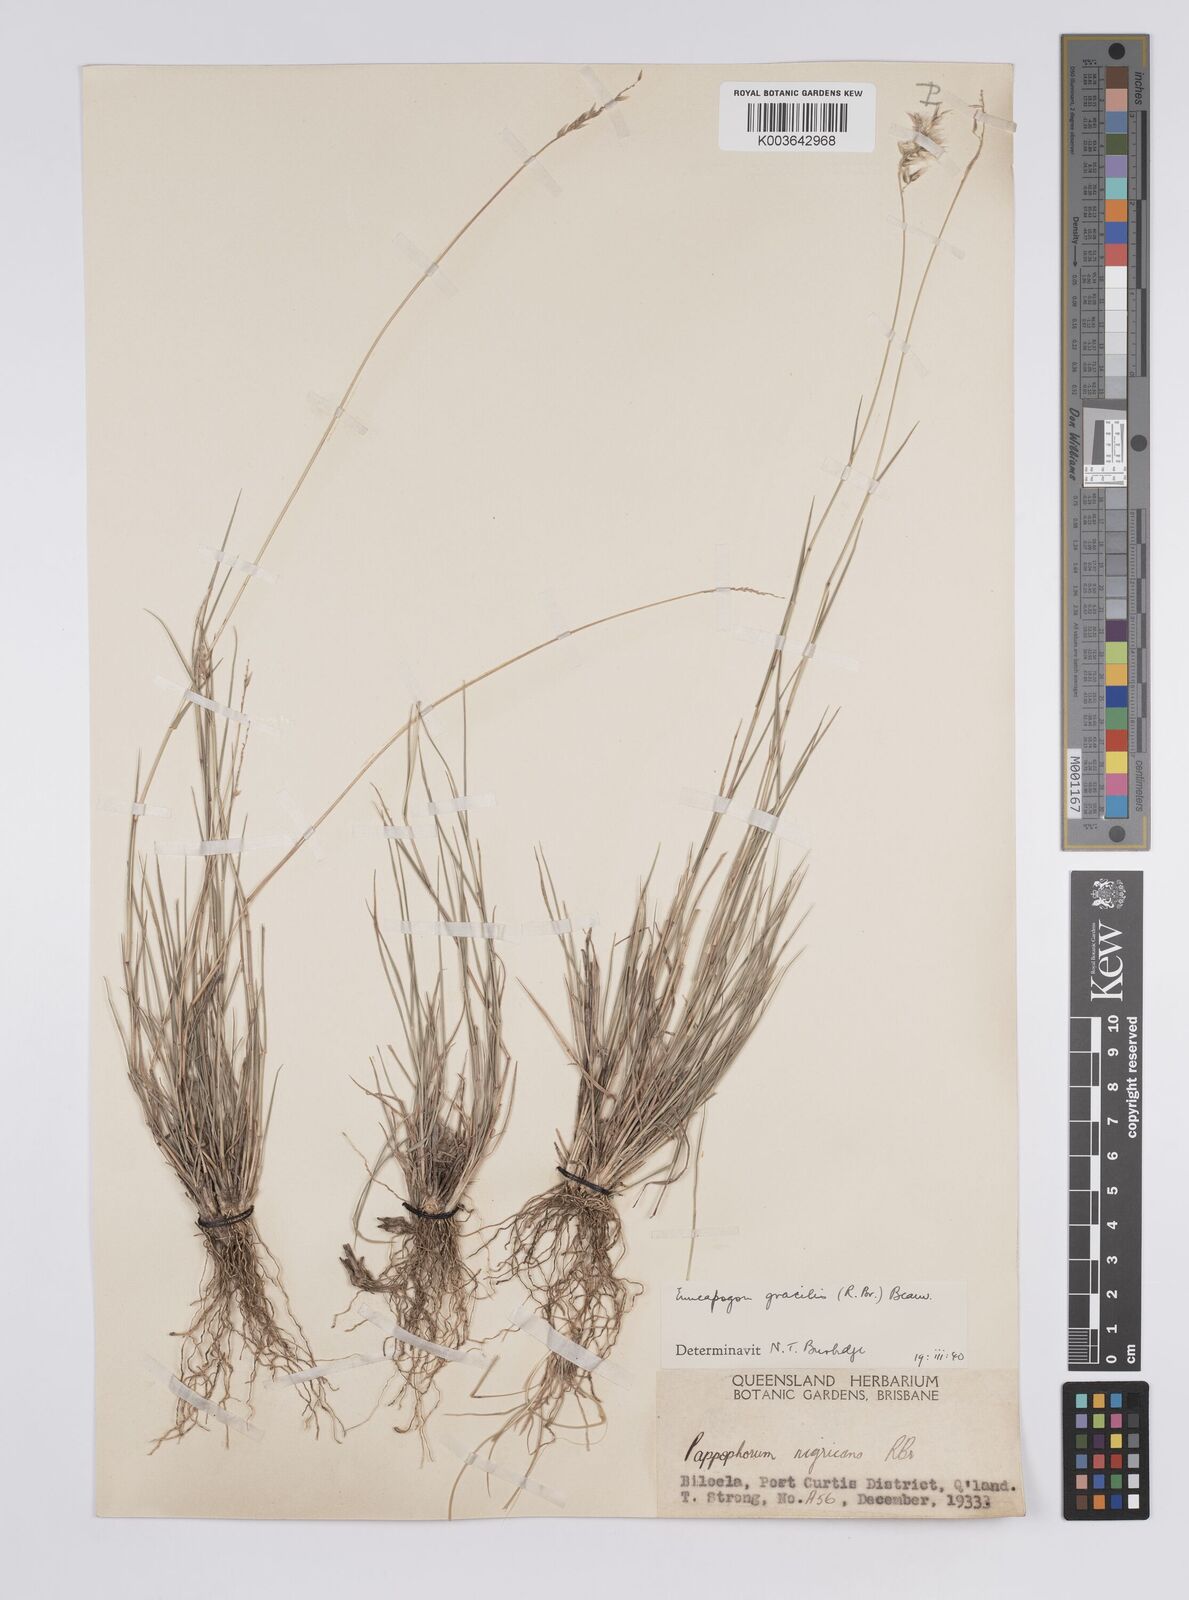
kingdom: Plantae
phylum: Tracheophyta
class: Liliopsida
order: Poales
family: Poaceae
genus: Enneapogon
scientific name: Enneapogon gracilis
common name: Slender bottle-washers
